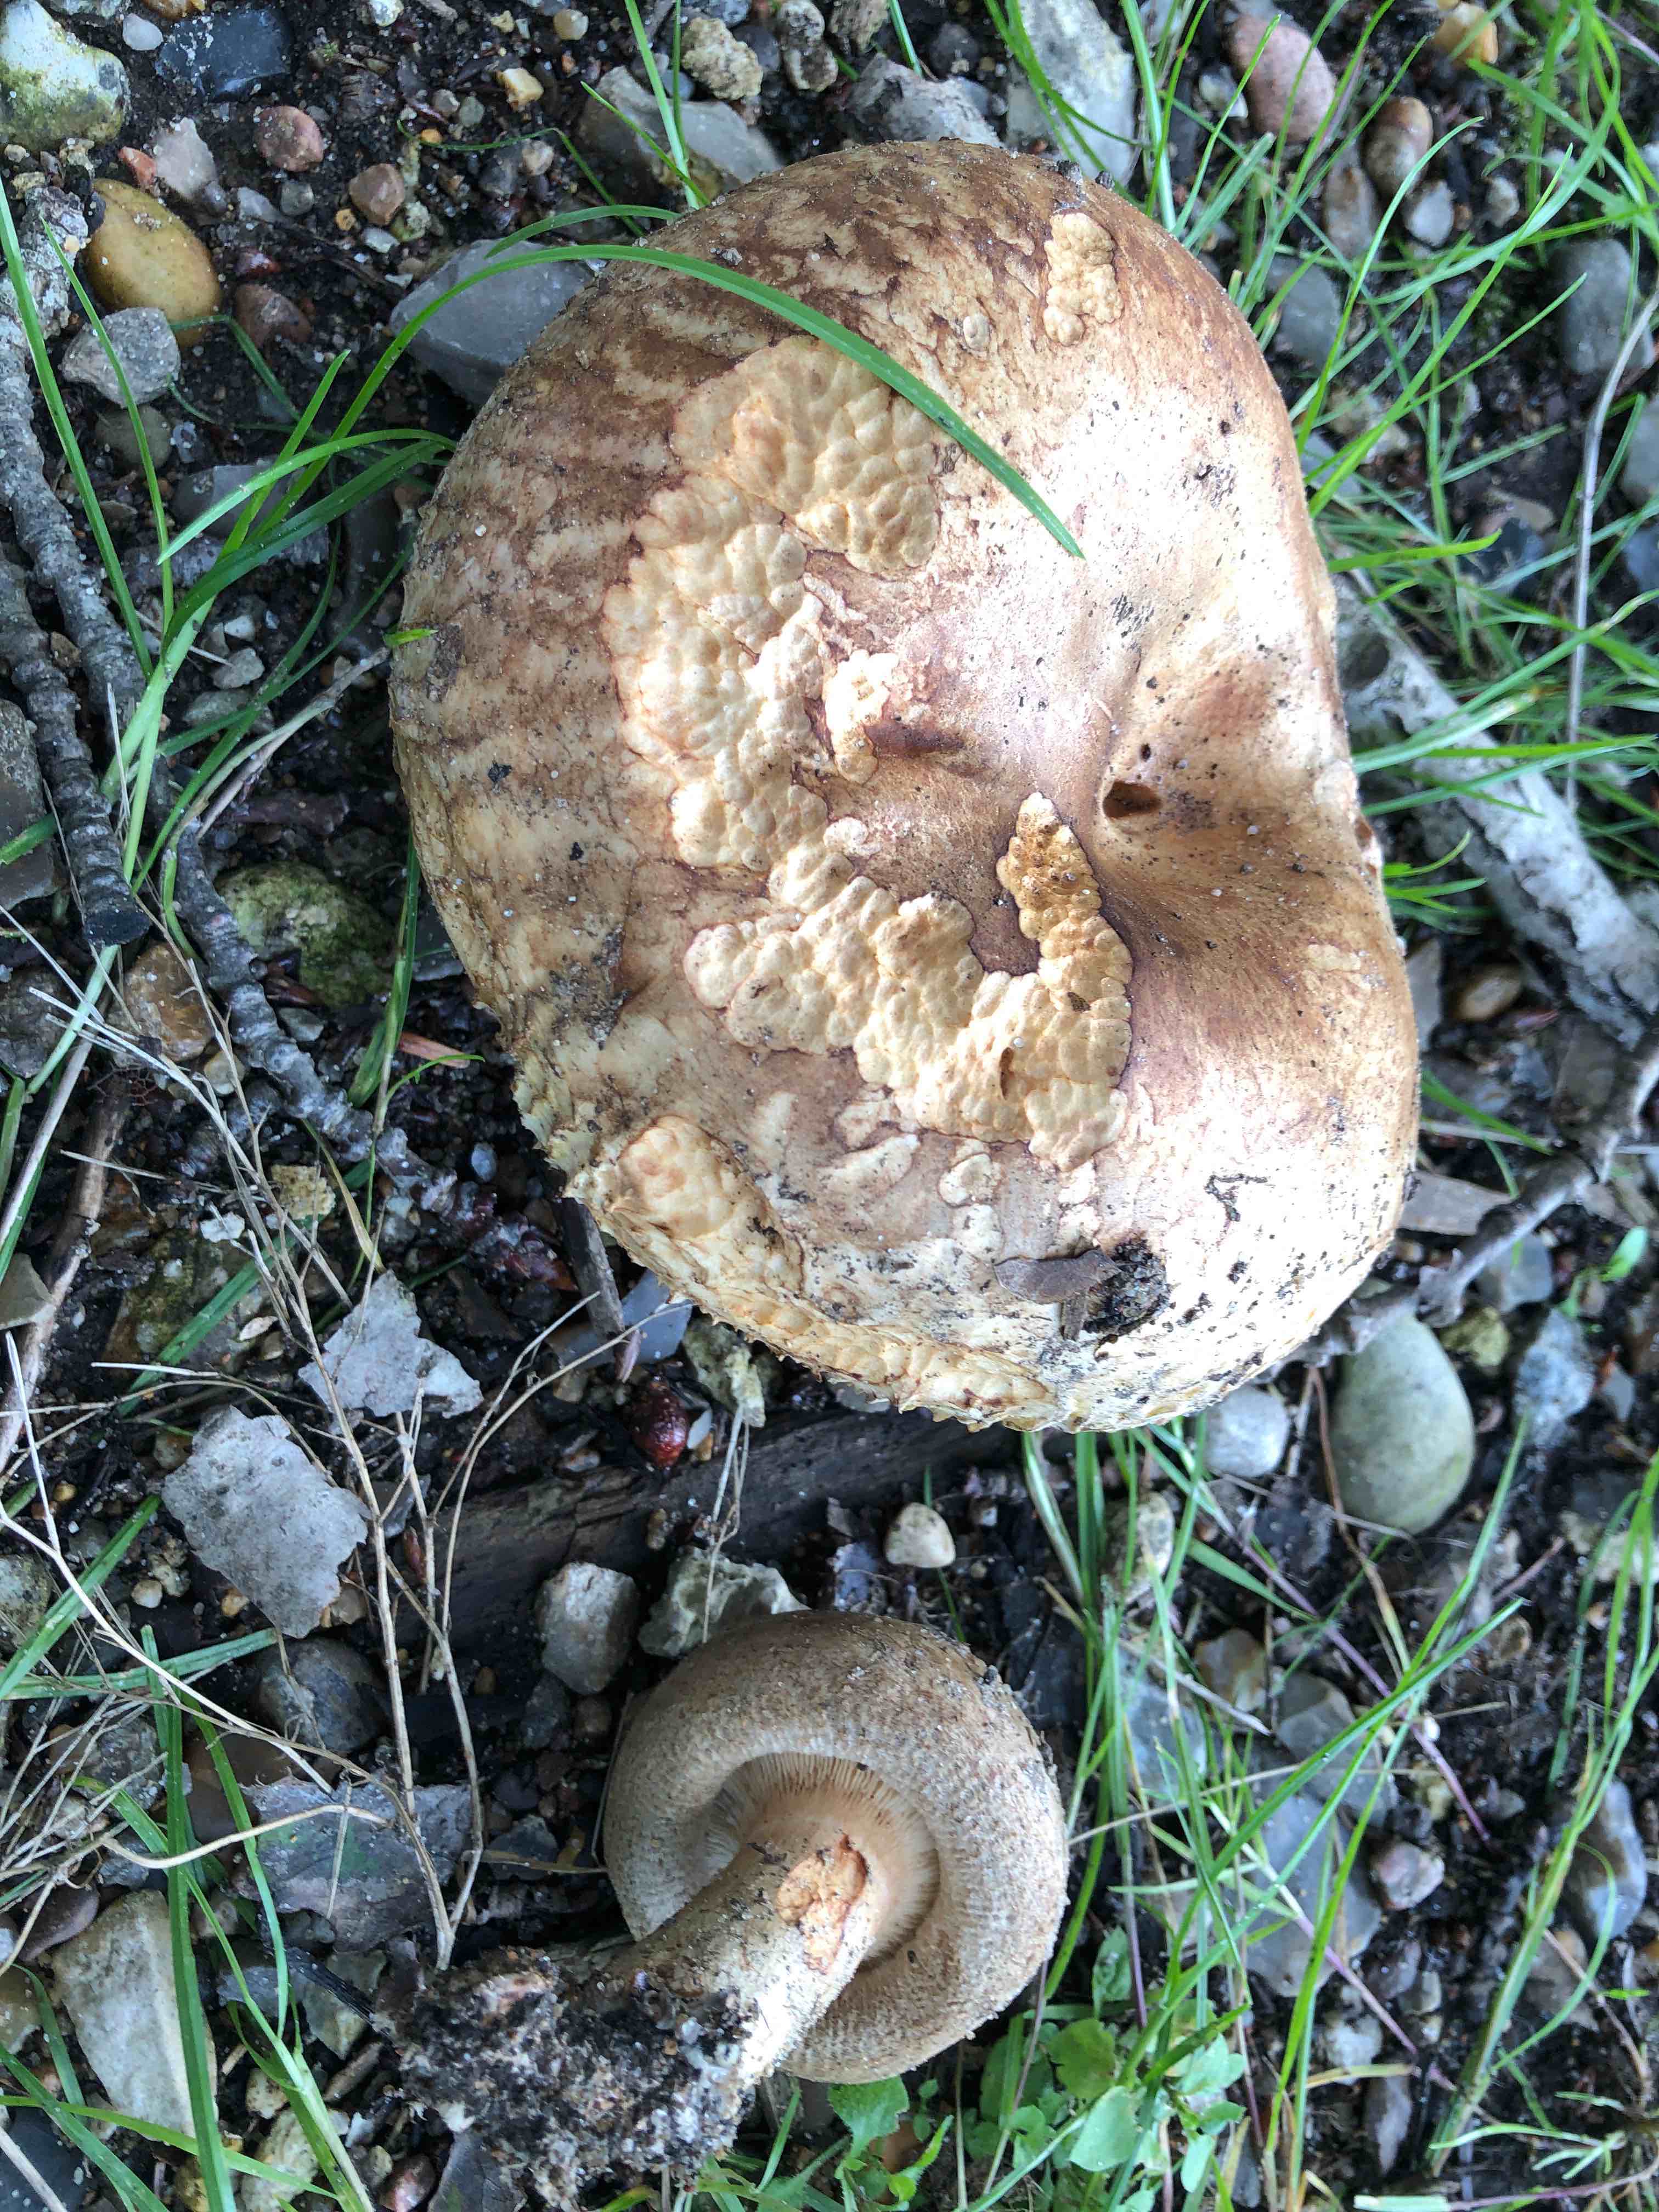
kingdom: Fungi
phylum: Basidiomycota
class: Agaricomycetes
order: Boletales
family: Paxillaceae
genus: Paxillus
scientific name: Paxillus obscurisporus
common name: mahognisporet netbladhat
